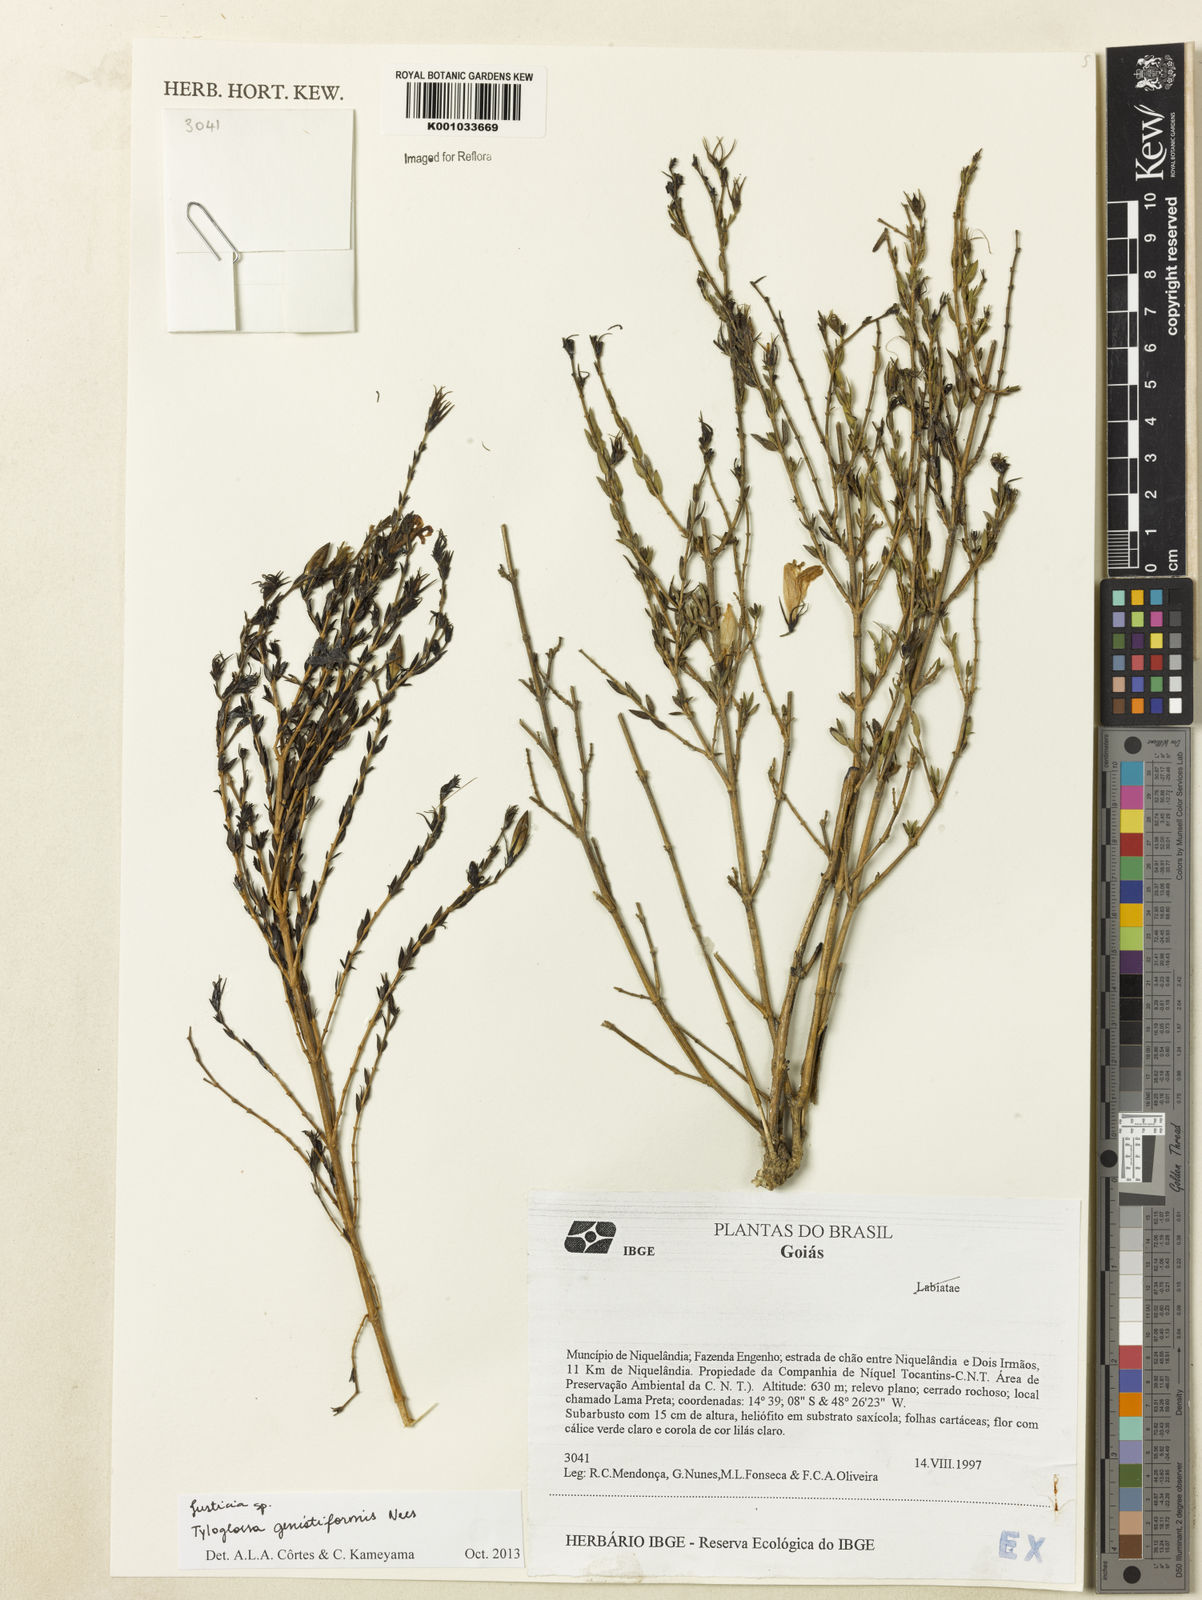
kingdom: Plantae
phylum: Tracheophyta
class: Magnoliopsida
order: Lamiales
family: Acanthaceae
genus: Justicia
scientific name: Justicia
